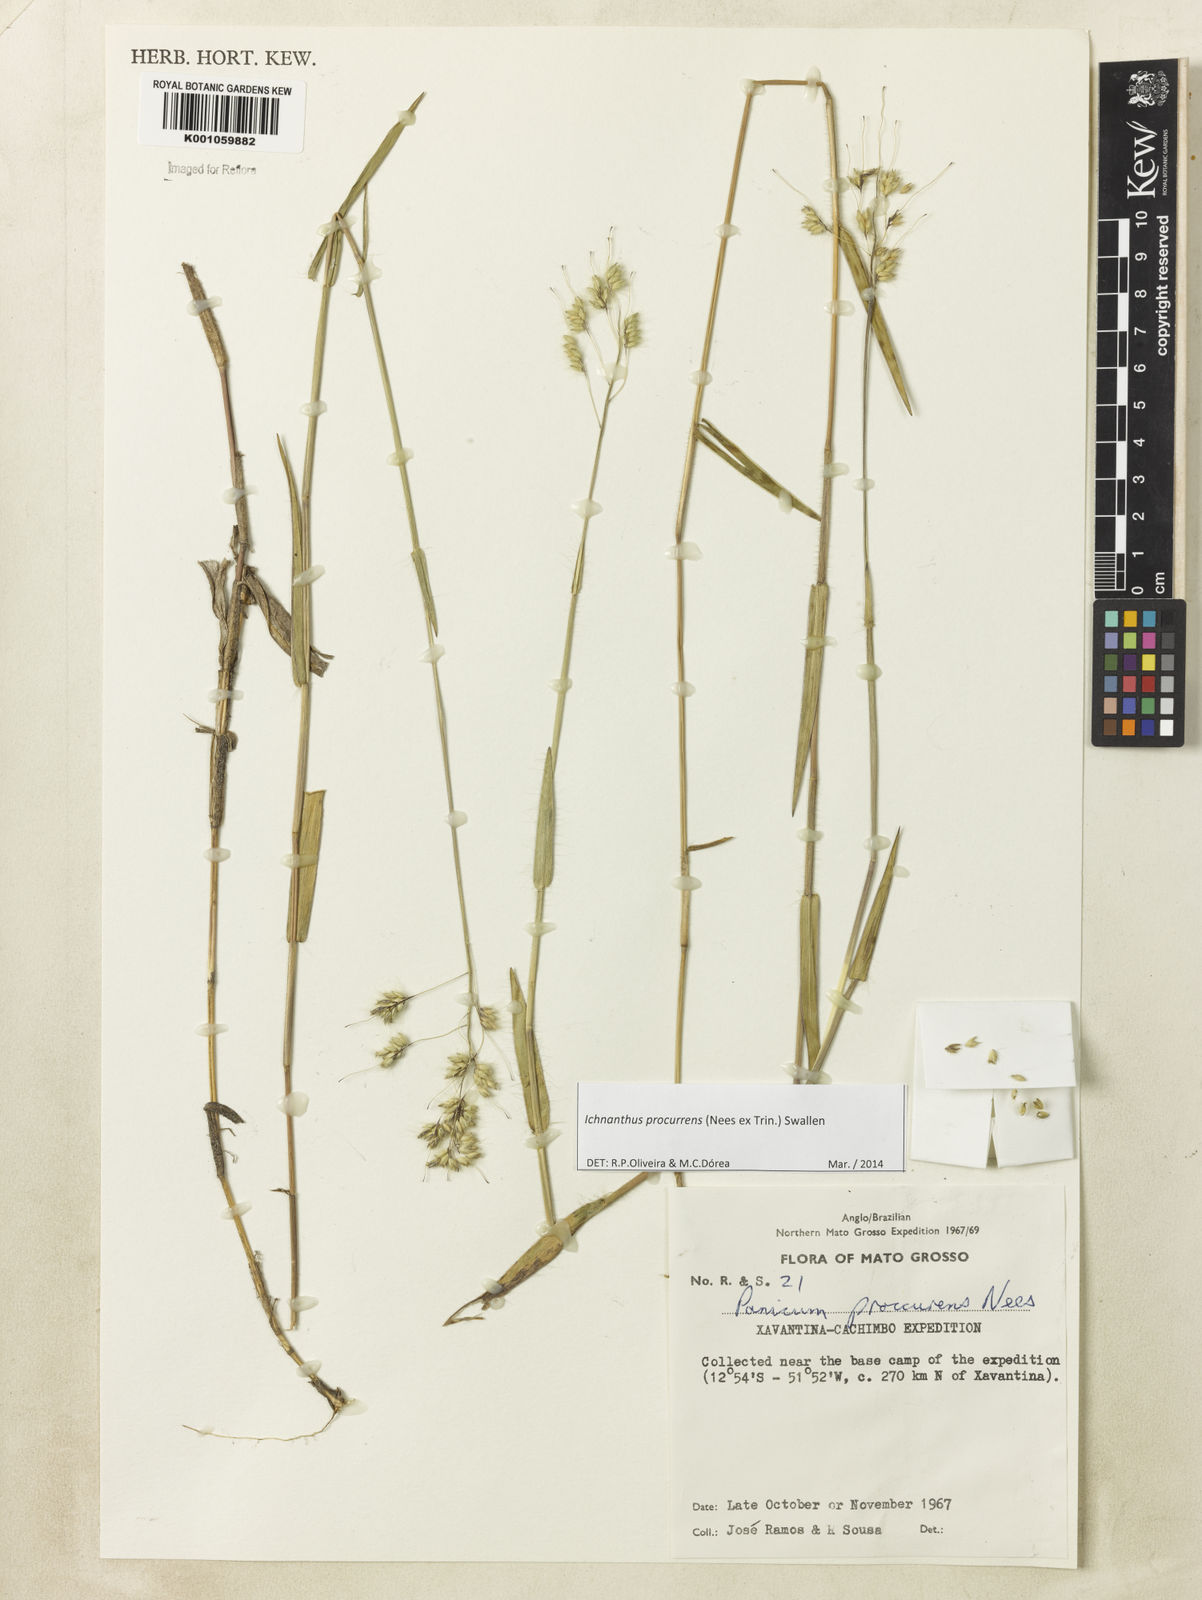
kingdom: Plantae
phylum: Tracheophyta
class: Liliopsida
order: Poales
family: Poaceae
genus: Oedochloa
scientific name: Oedochloa procurrens
